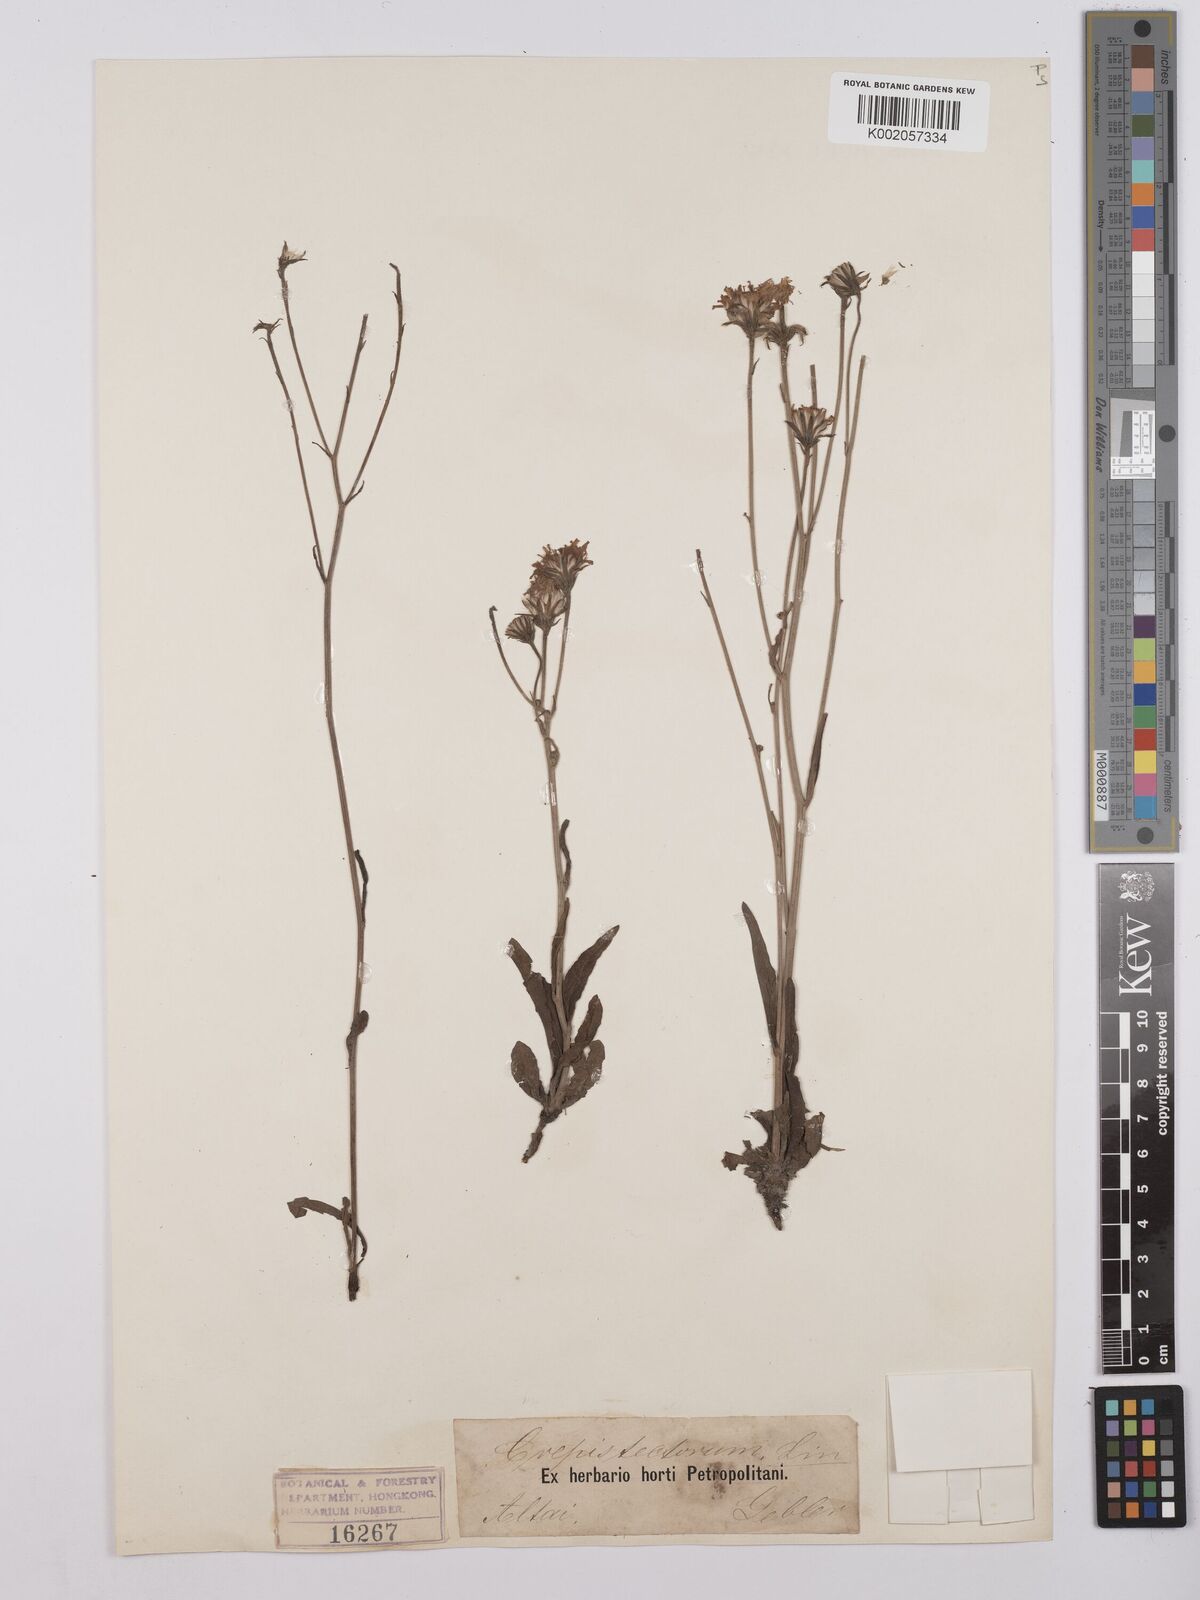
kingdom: Plantae
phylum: Tracheophyta
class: Magnoliopsida
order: Asterales
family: Asteraceae
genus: Crepis
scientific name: Crepis tectorum
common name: Narrow-leaved hawk's-beard
